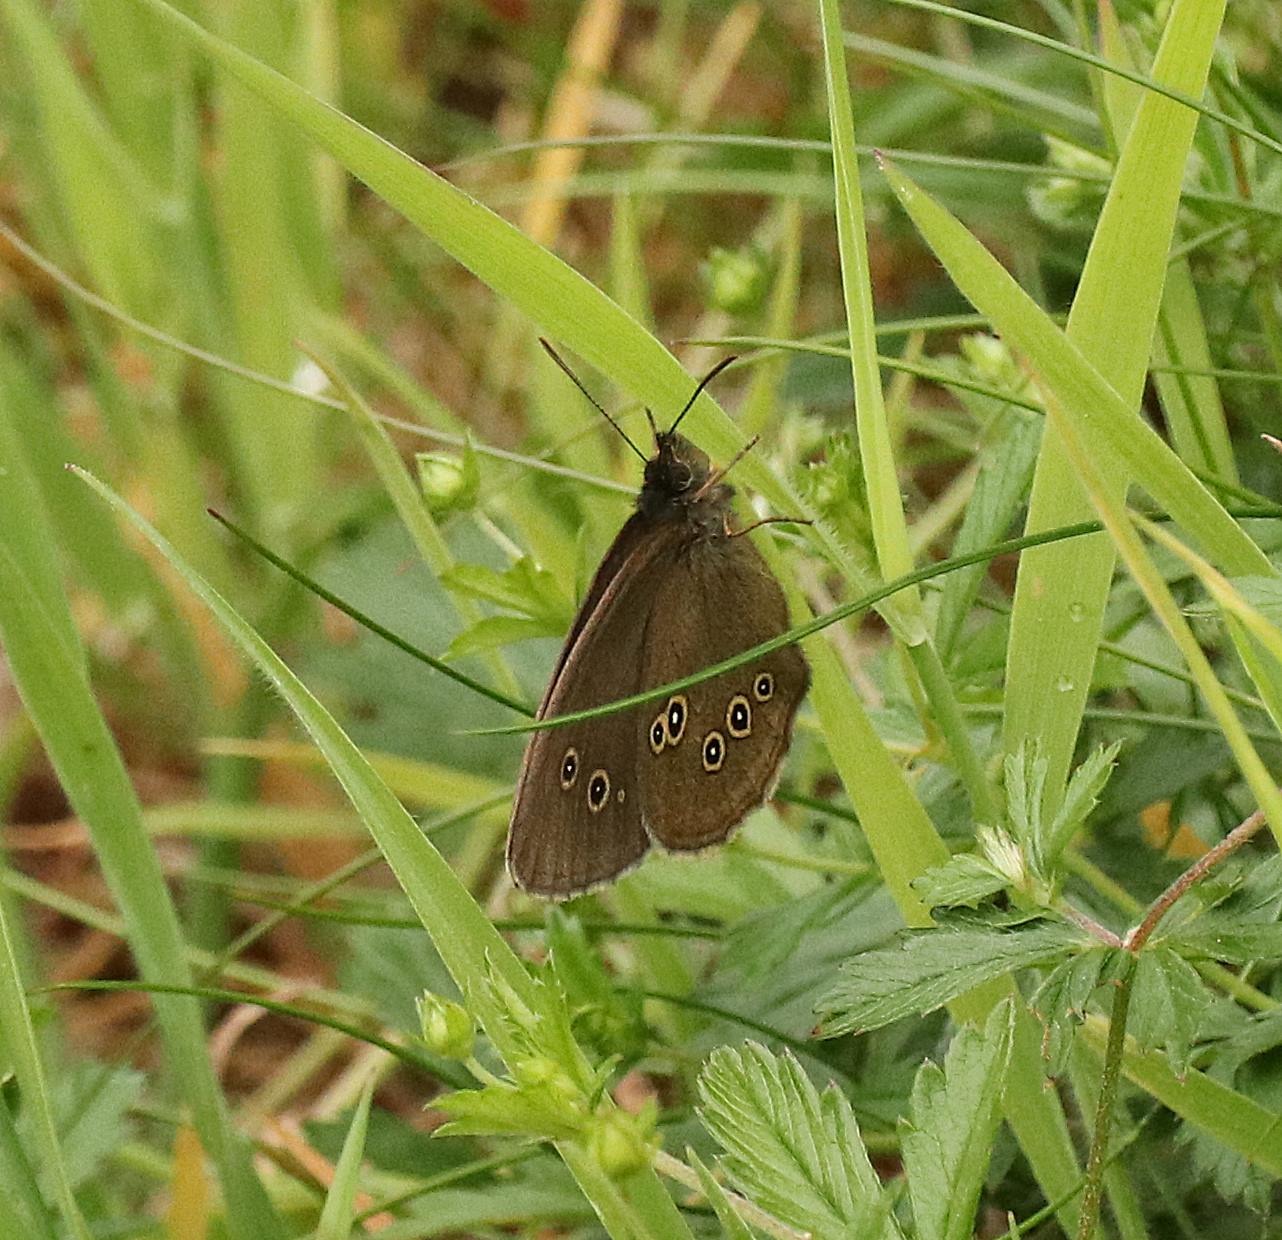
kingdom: Animalia
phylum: Arthropoda
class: Insecta
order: Lepidoptera
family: Nymphalidae
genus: Aphantopus
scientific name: Aphantopus hyperantus
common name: Engrandøje
